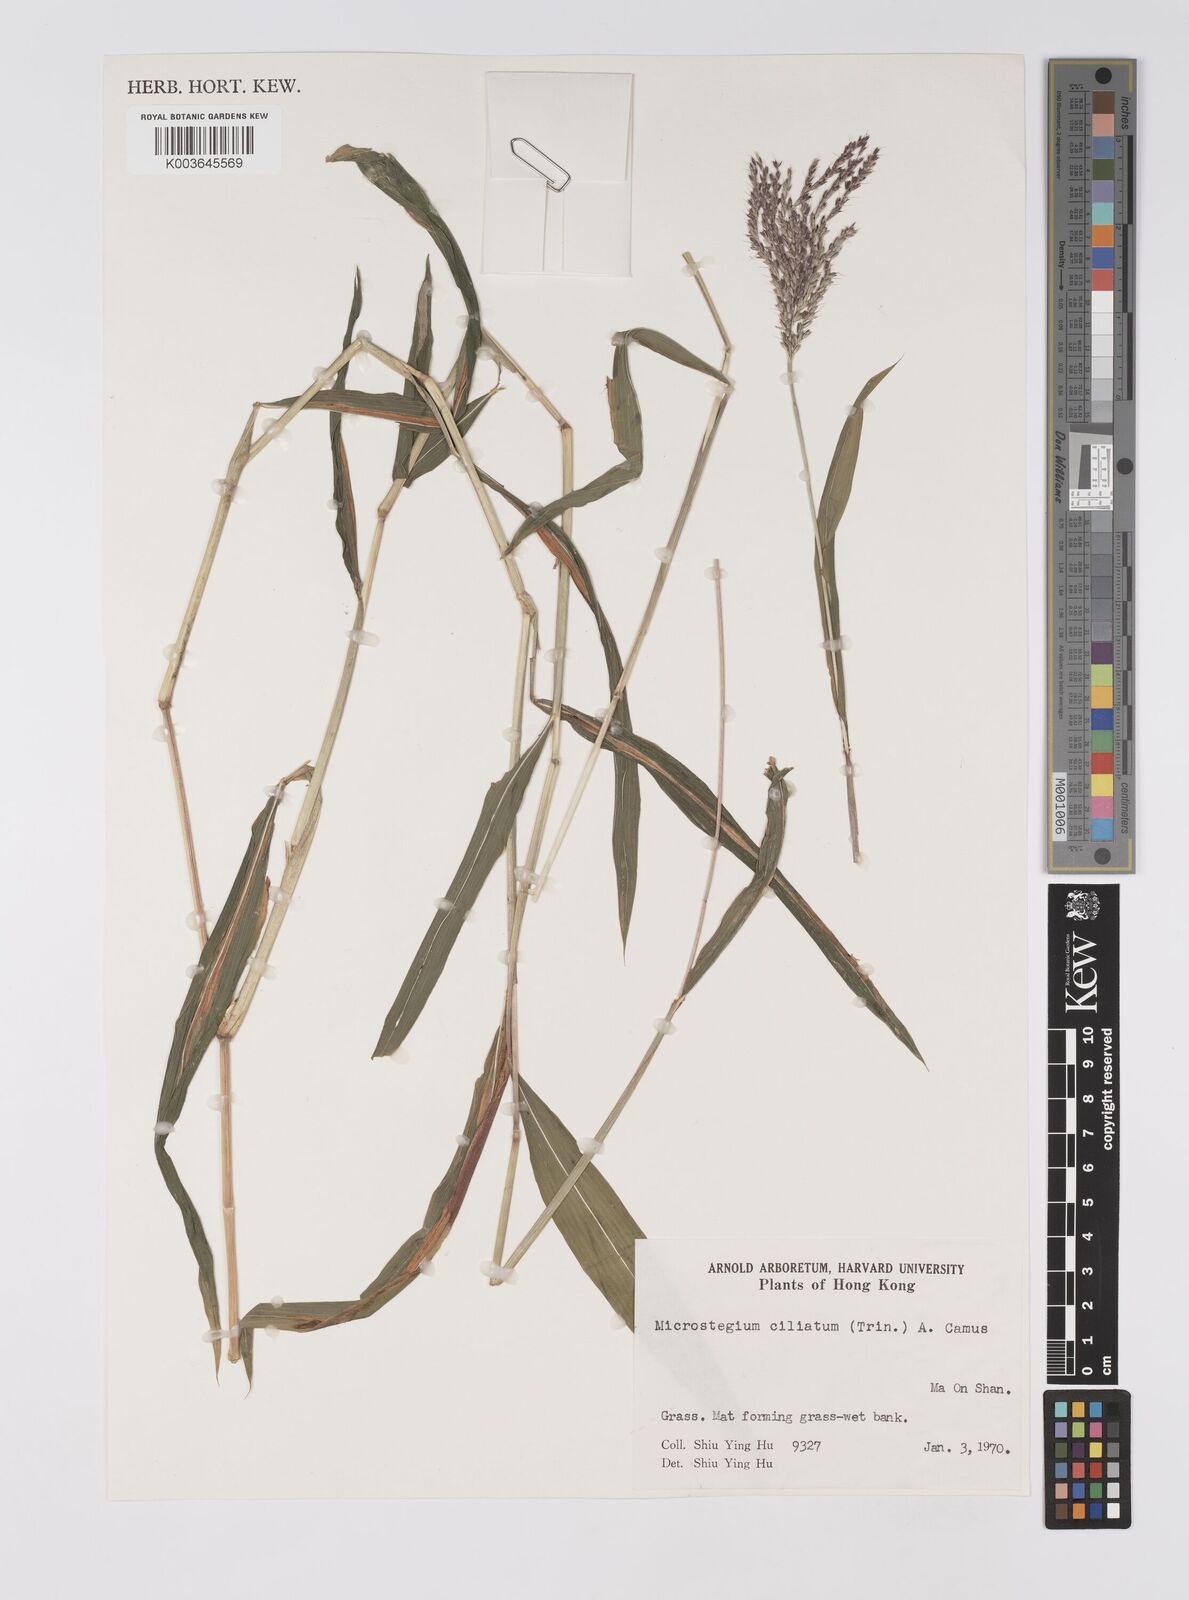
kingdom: Plantae
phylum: Tracheophyta
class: Liliopsida
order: Poales
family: Poaceae
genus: Microstegium
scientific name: Microstegium fasciculatum
